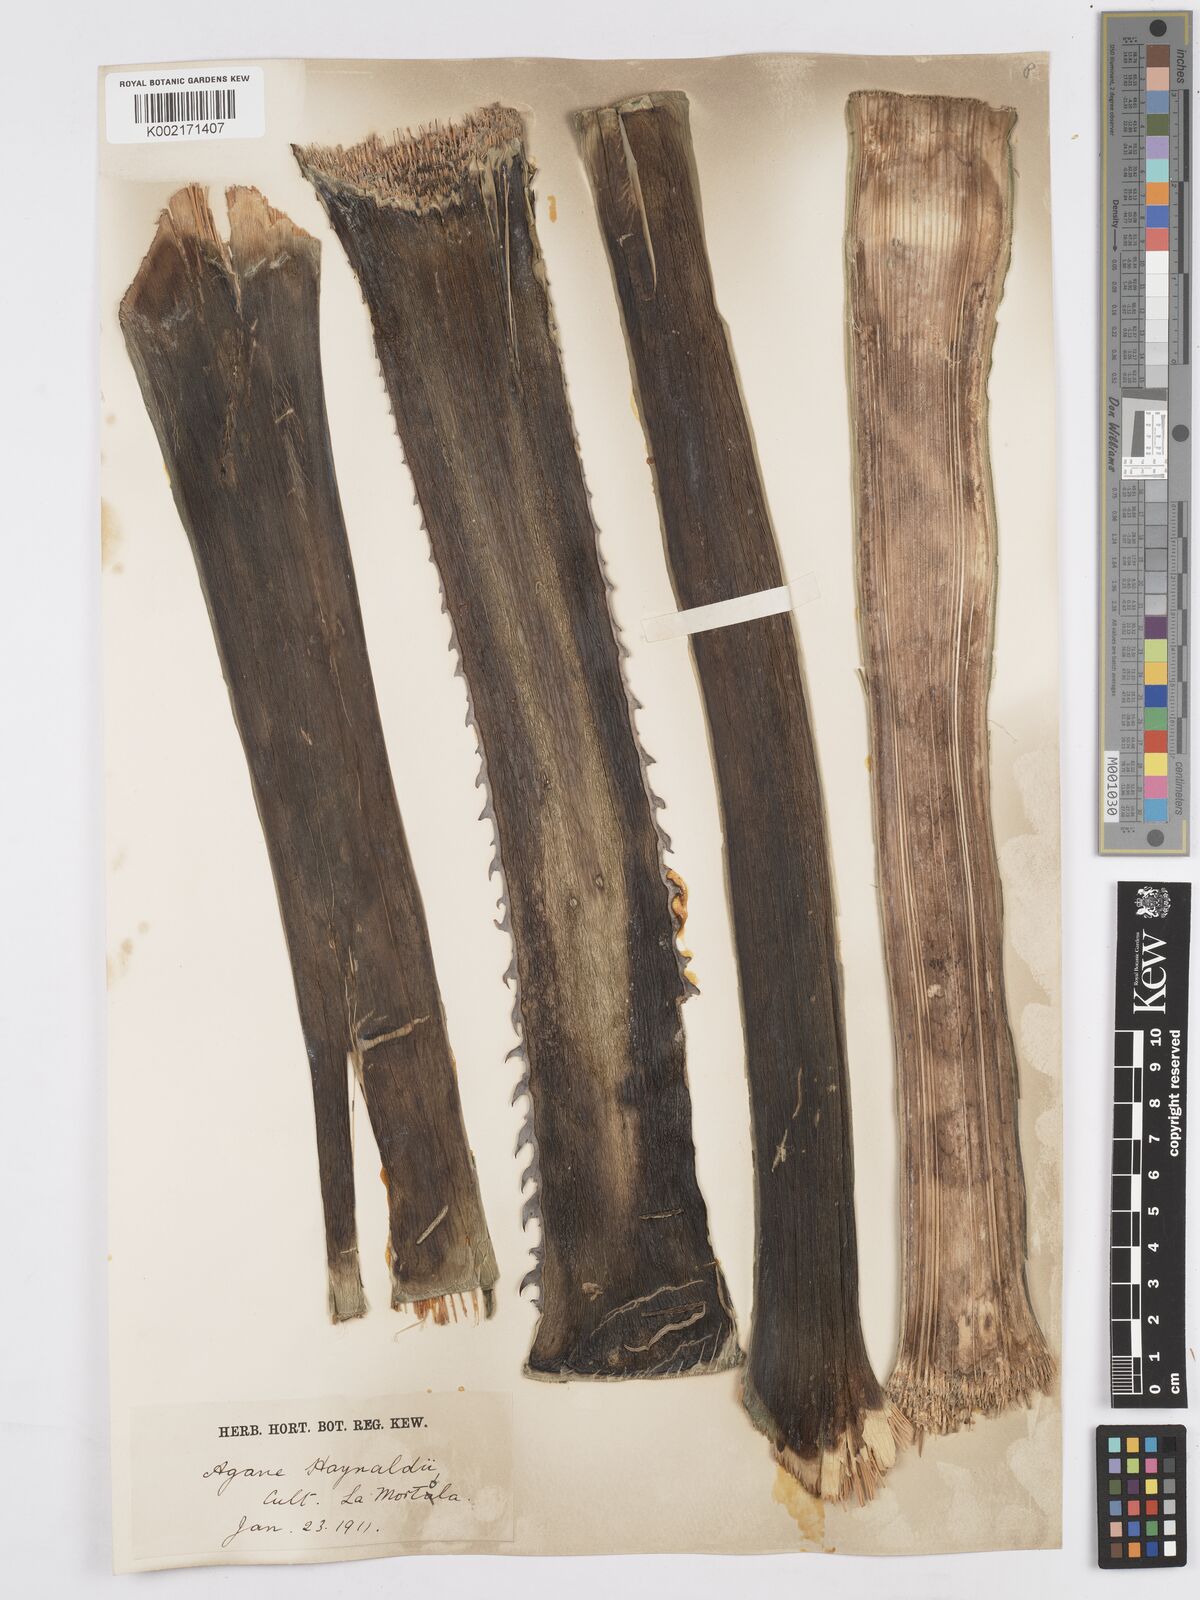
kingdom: Plantae
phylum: Tracheophyta
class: Liliopsida
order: Asparagales
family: Asparagaceae
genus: Agave
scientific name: Agave utahensis
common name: Utah agave
